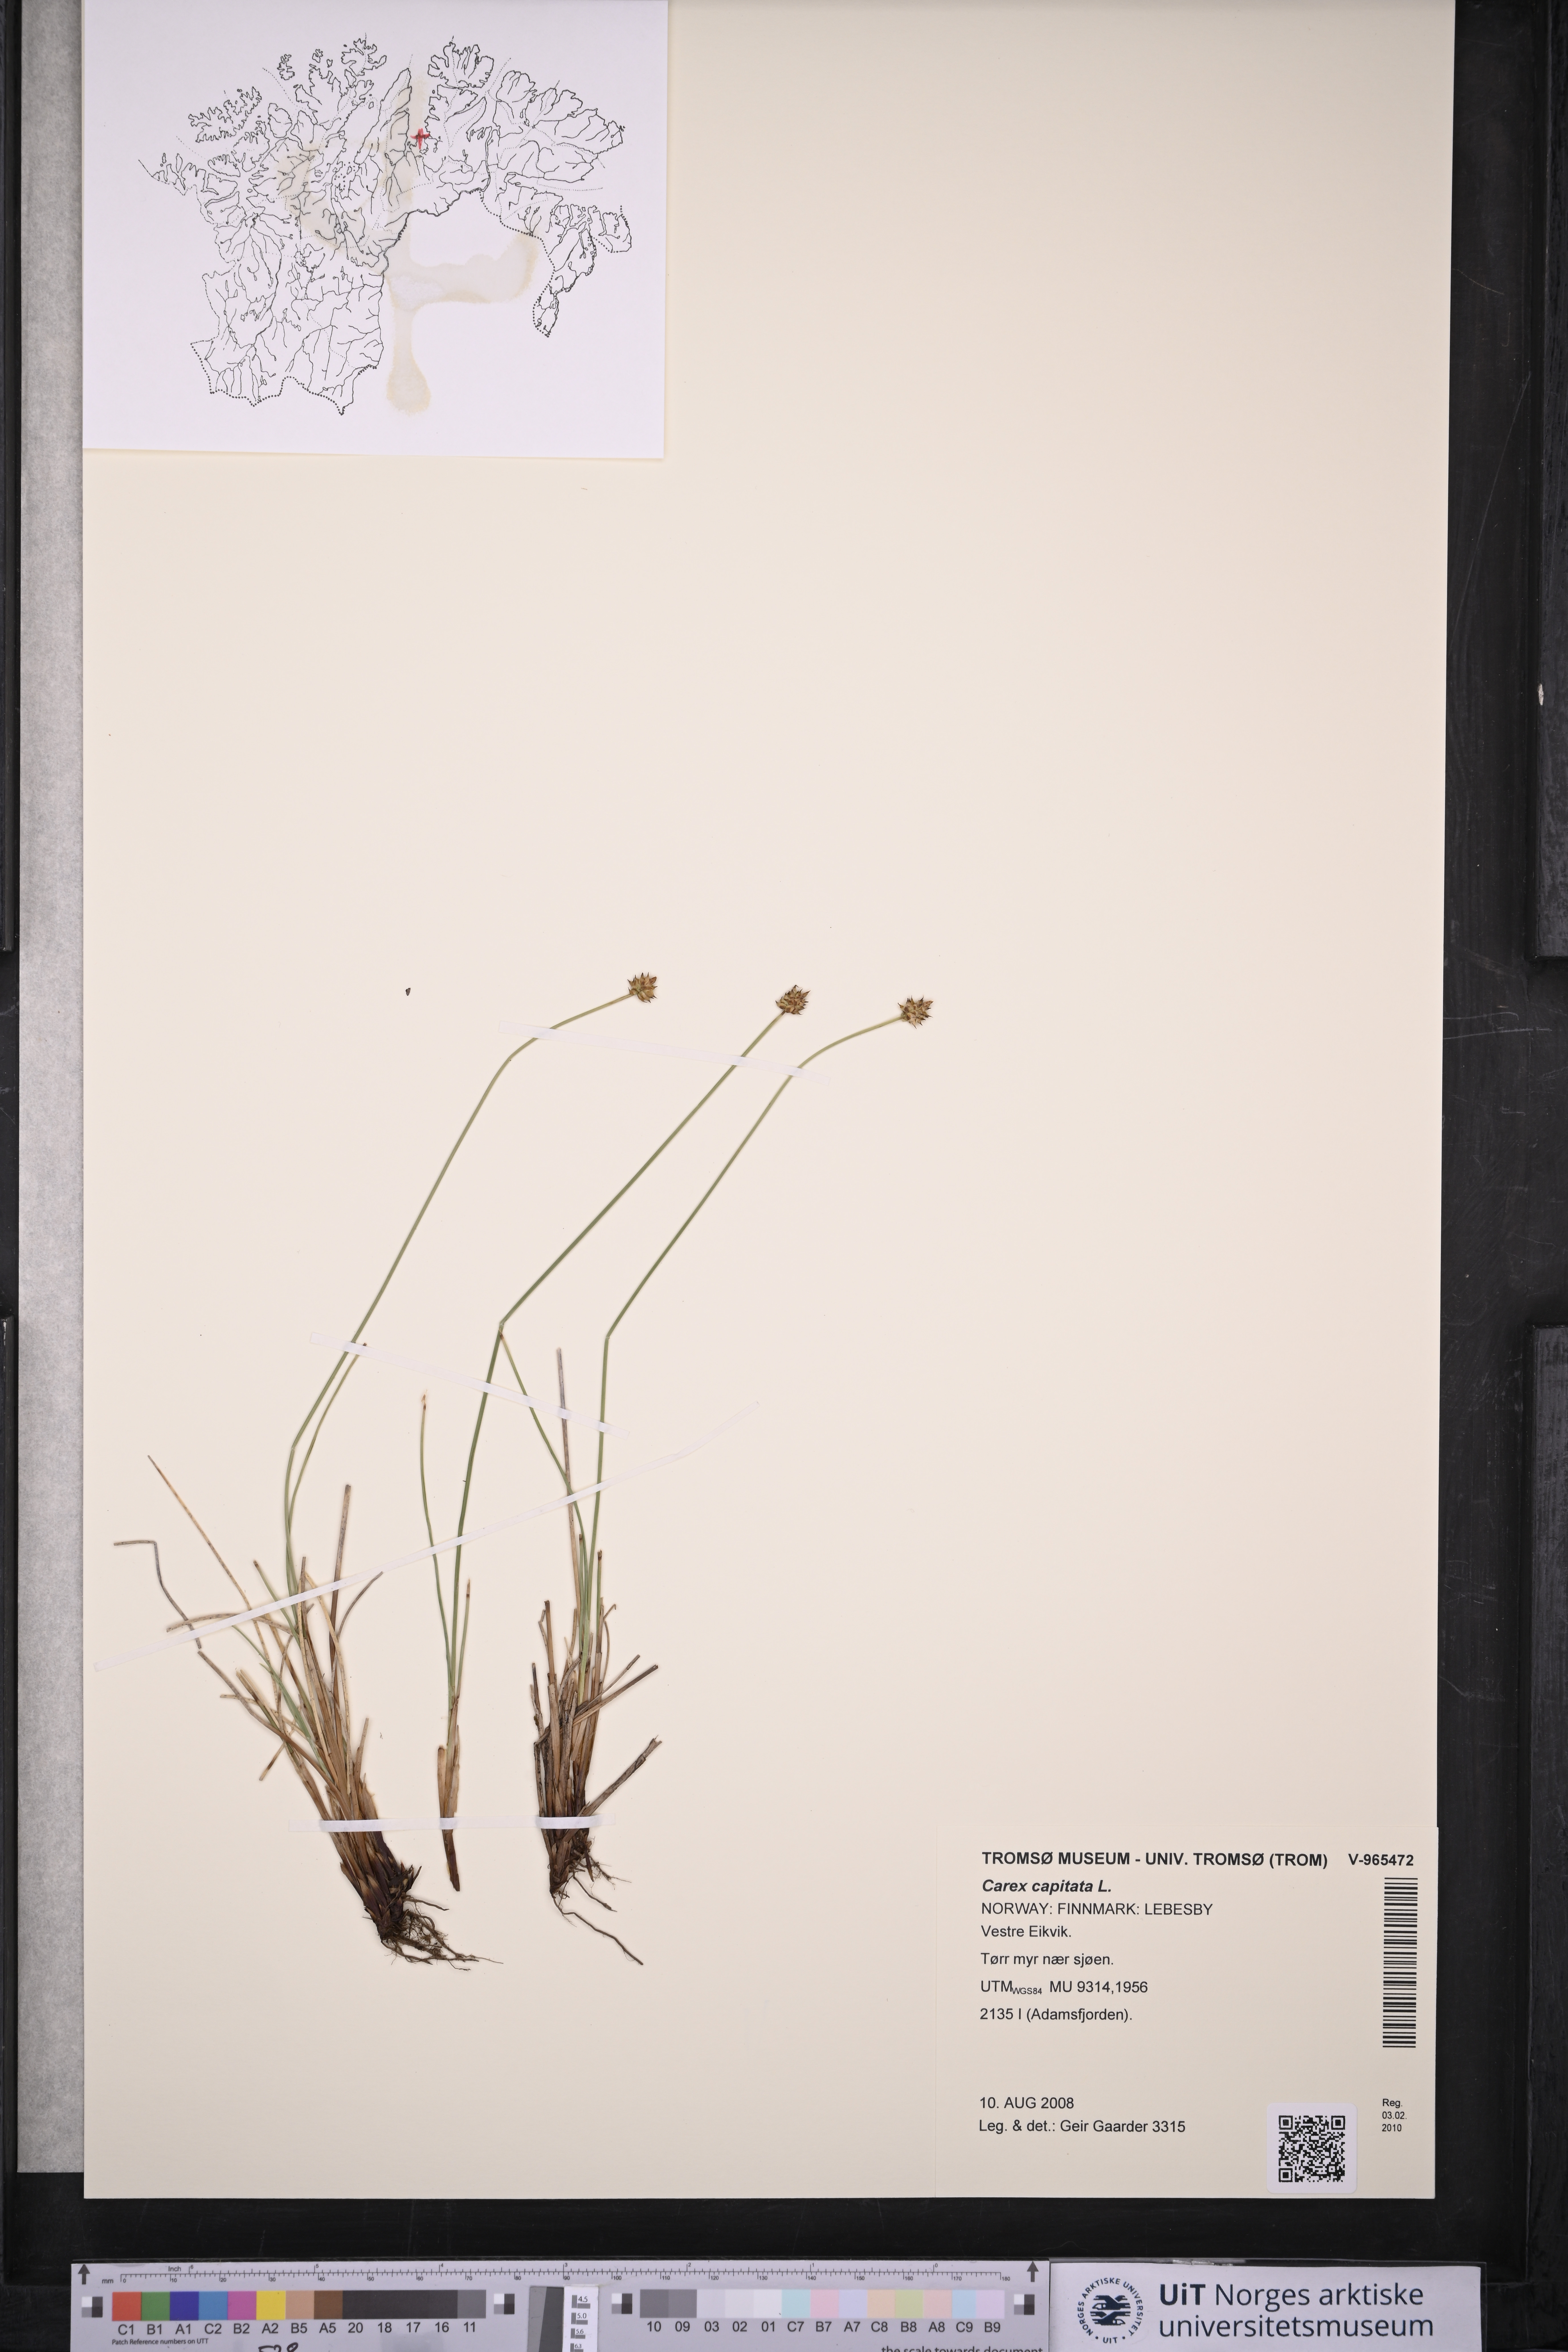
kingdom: Plantae
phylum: Tracheophyta
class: Liliopsida
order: Poales
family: Cyperaceae
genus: Carex
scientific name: Carex capitata
